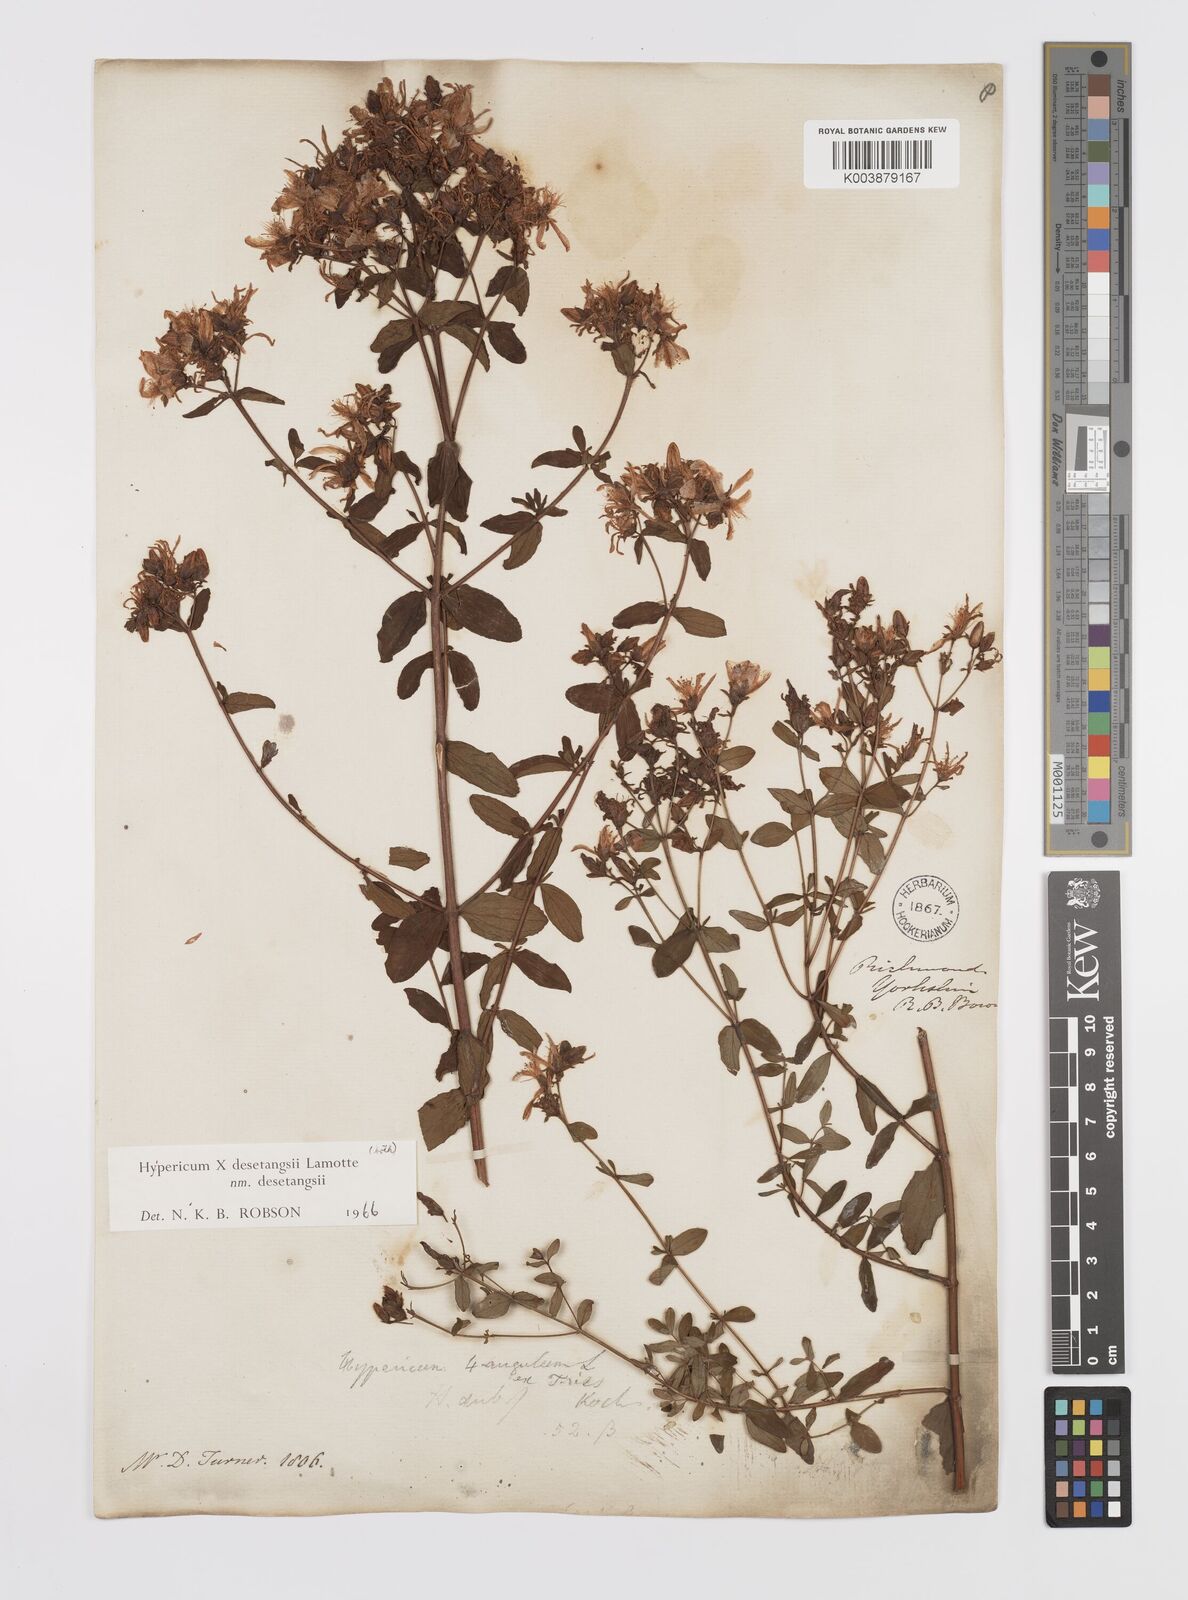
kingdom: Plantae
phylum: Tracheophyta
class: Magnoliopsida
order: Malpighiales
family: Hypericaceae
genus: Hypericum
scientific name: Hypericum undulatum
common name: Wavy st. john's-wort
